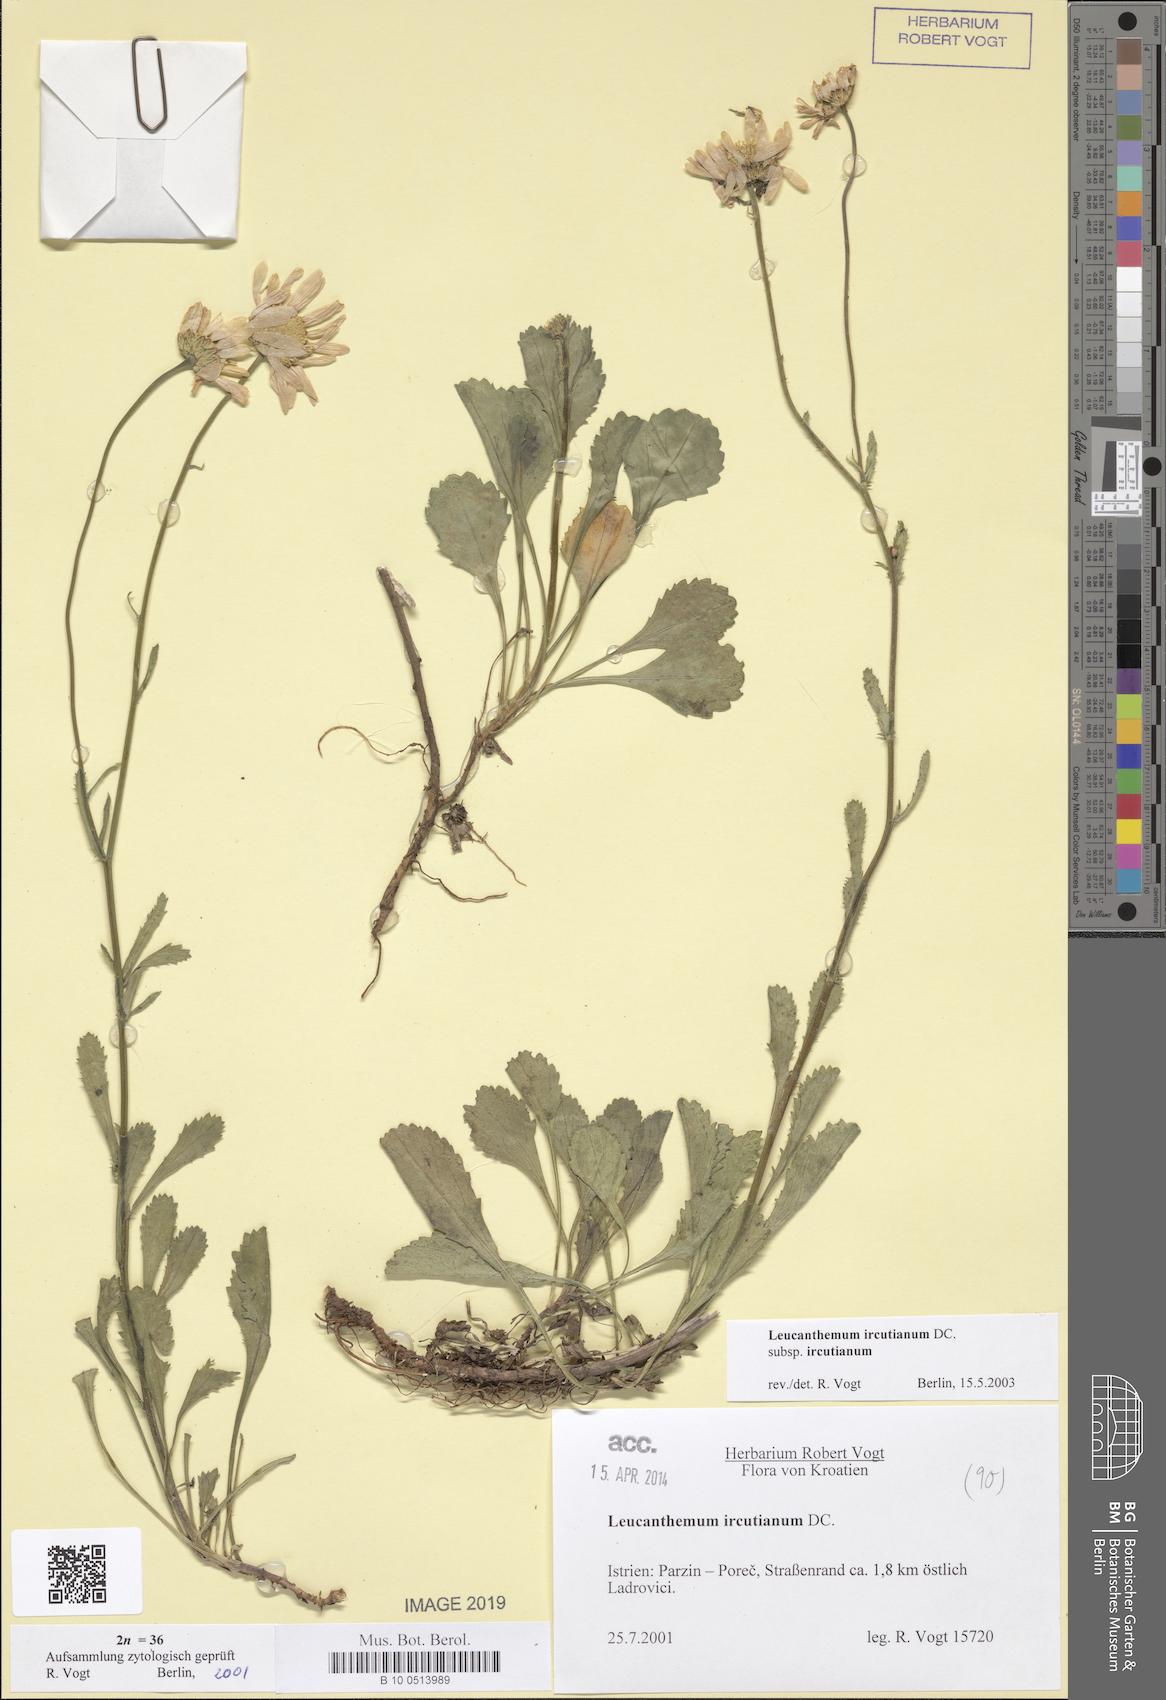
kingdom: Plantae
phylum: Tracheophyta
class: Magnoliopsida
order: Asterales
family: Asteraceae
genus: Leucanthemum
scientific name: Leucanthemum ircutianum
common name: Daisy
